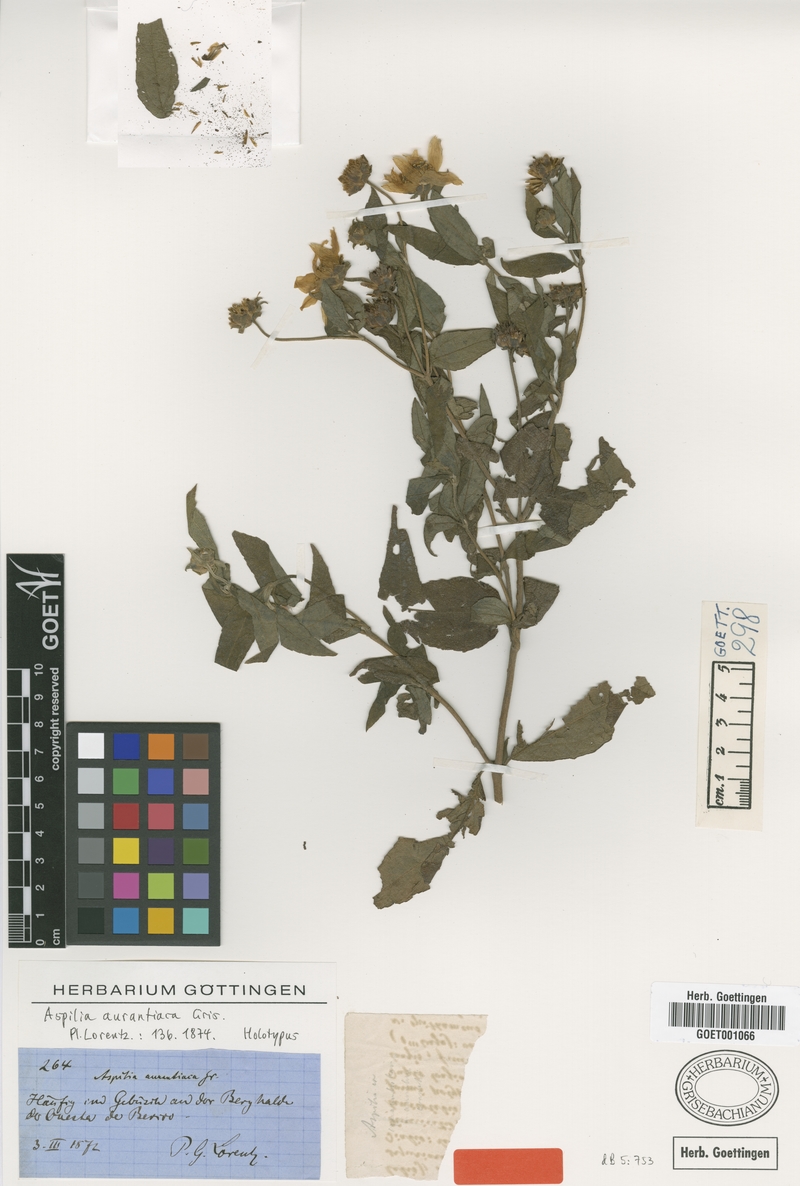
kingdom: Plantae
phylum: Tracheophyta
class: Magnoliopsida
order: Asterales
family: Asteraceae
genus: Wedelia
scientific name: Wedelia aurantiaca
